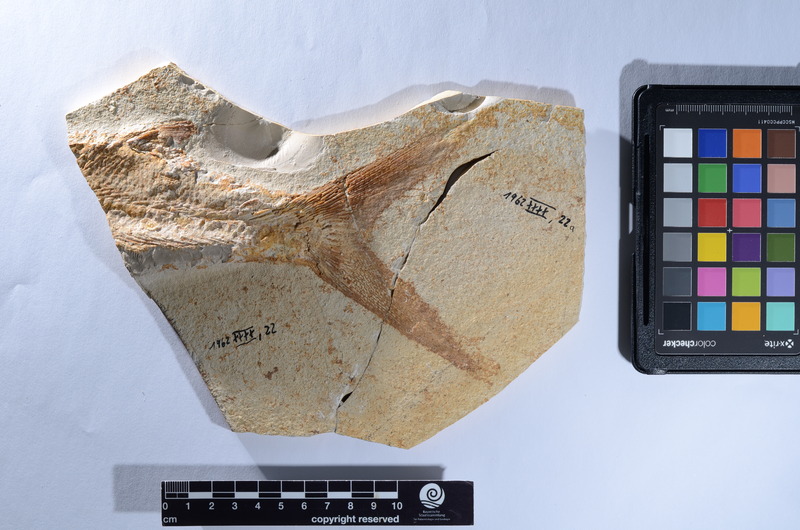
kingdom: Animalia
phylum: Chordata
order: Amiiformes
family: Caturidae
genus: Caturus
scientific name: Caturus
